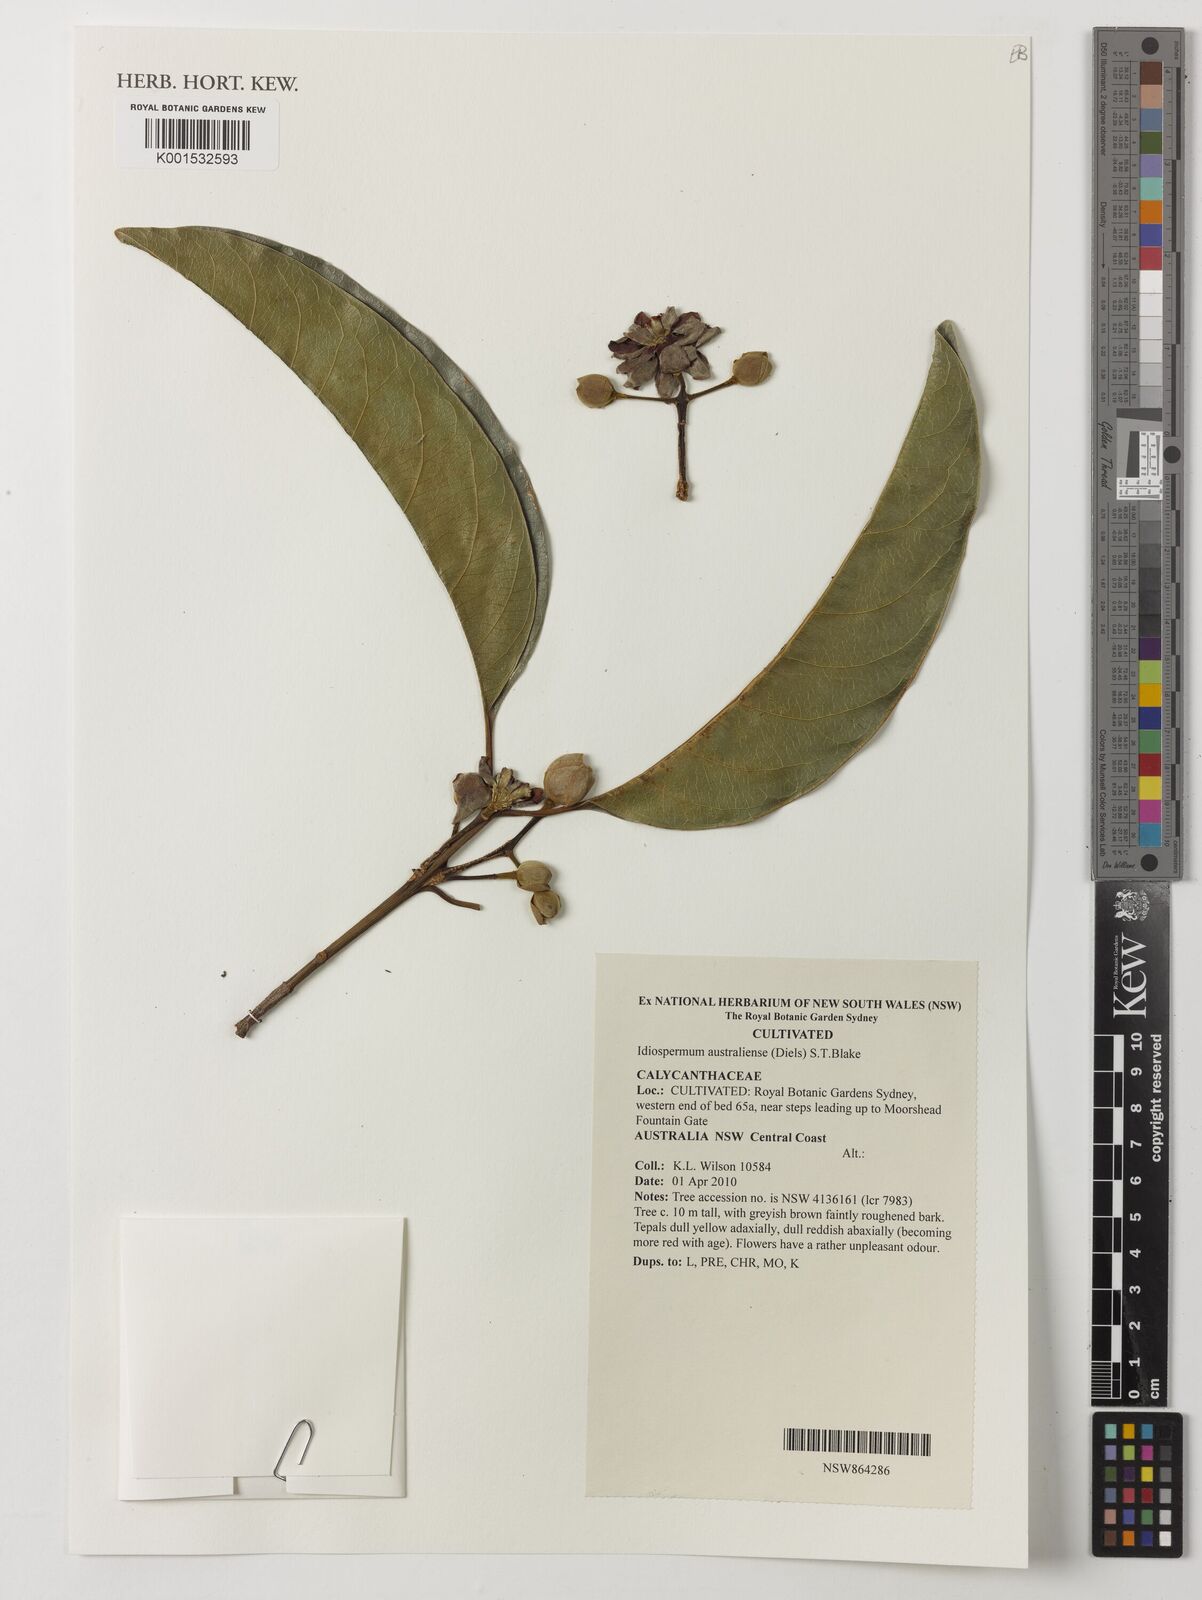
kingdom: Plantae
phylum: Tracheophyta
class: Magnoliopsida
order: Laurales
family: Calycanthaceae
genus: Idiospermum
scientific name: Idiospermum australiense
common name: Idiot-fruit
